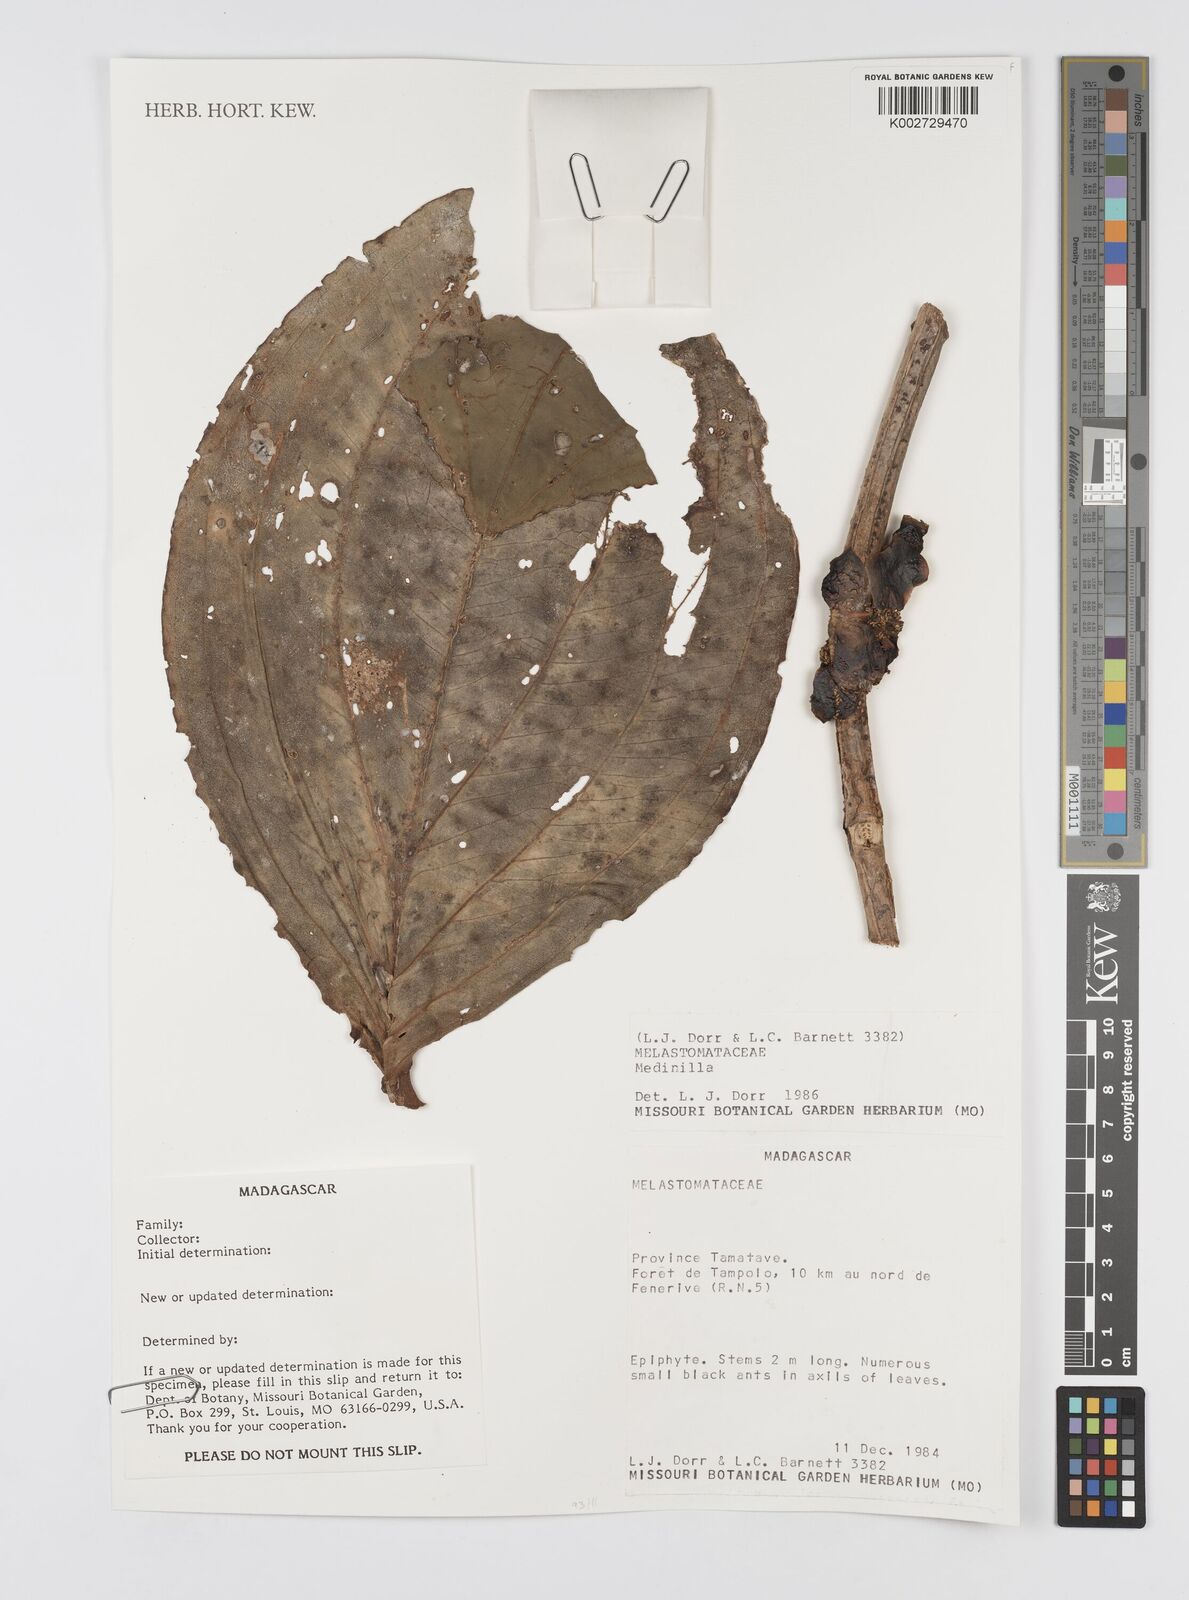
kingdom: Plantae
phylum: Tracheophyta
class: Magnoliopsida
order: Myrtales
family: Melastomataceae
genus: Medinilla
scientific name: Medinilla
